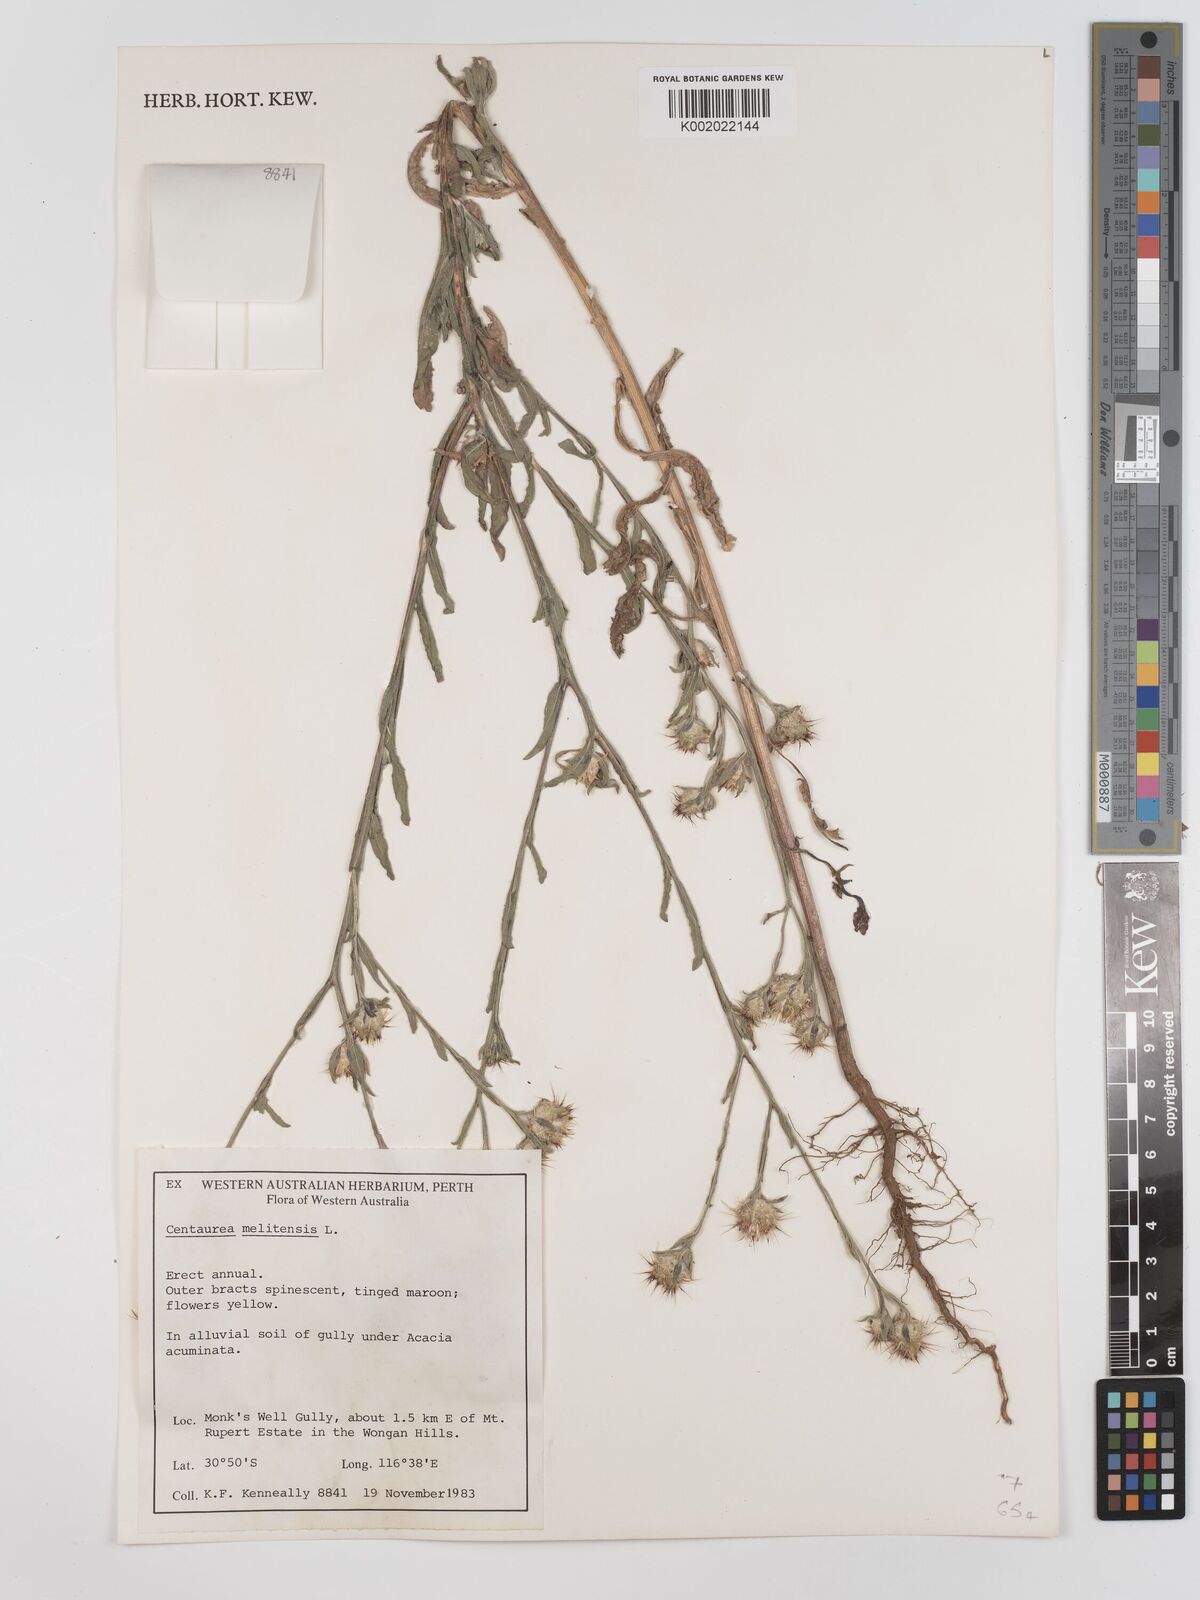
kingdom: Plantae
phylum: Tracheophyta
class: Magnoliopsida
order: Asterales
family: Asteraceae
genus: Centaurea
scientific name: Centaurea melitensis
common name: Maltese star-thistle
